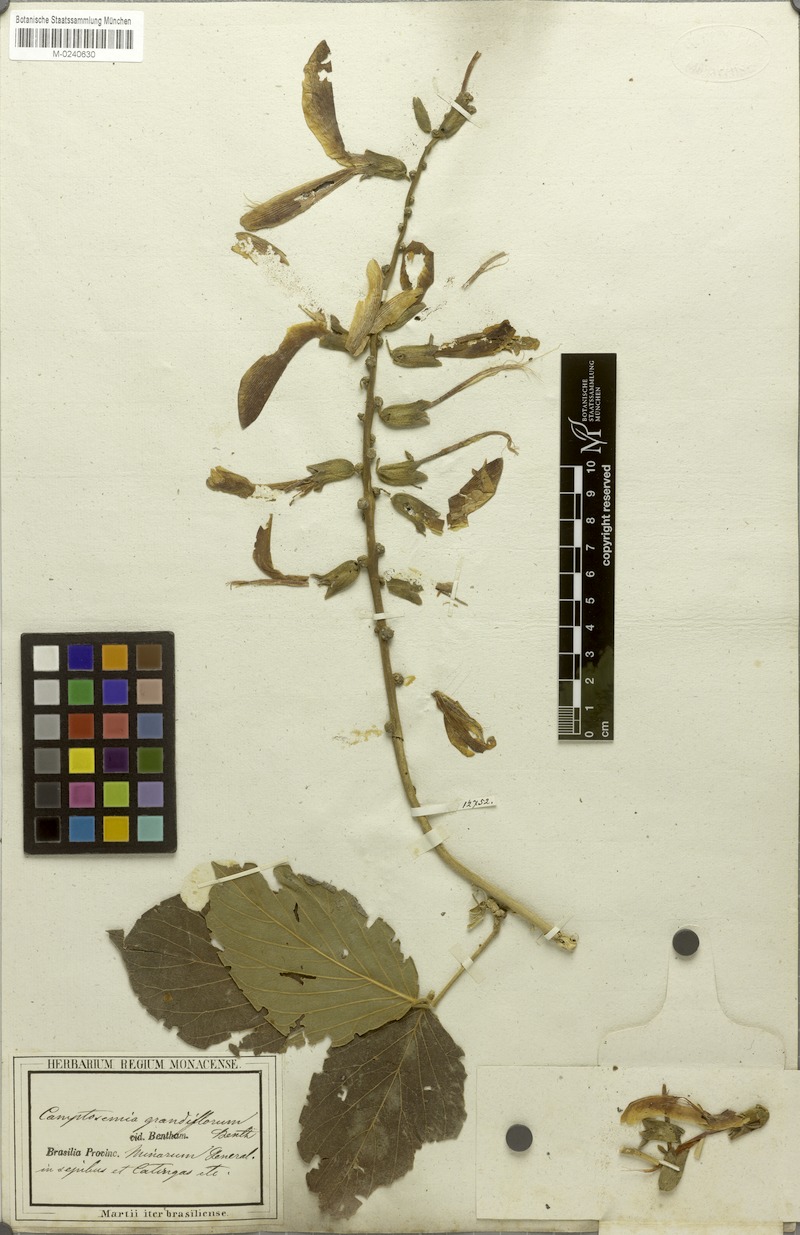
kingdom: Plantae
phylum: Tracheophyta
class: Magnoliopsida
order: Fabales
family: Fabaceae
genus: Camptosema
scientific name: Camptosema spectabile
